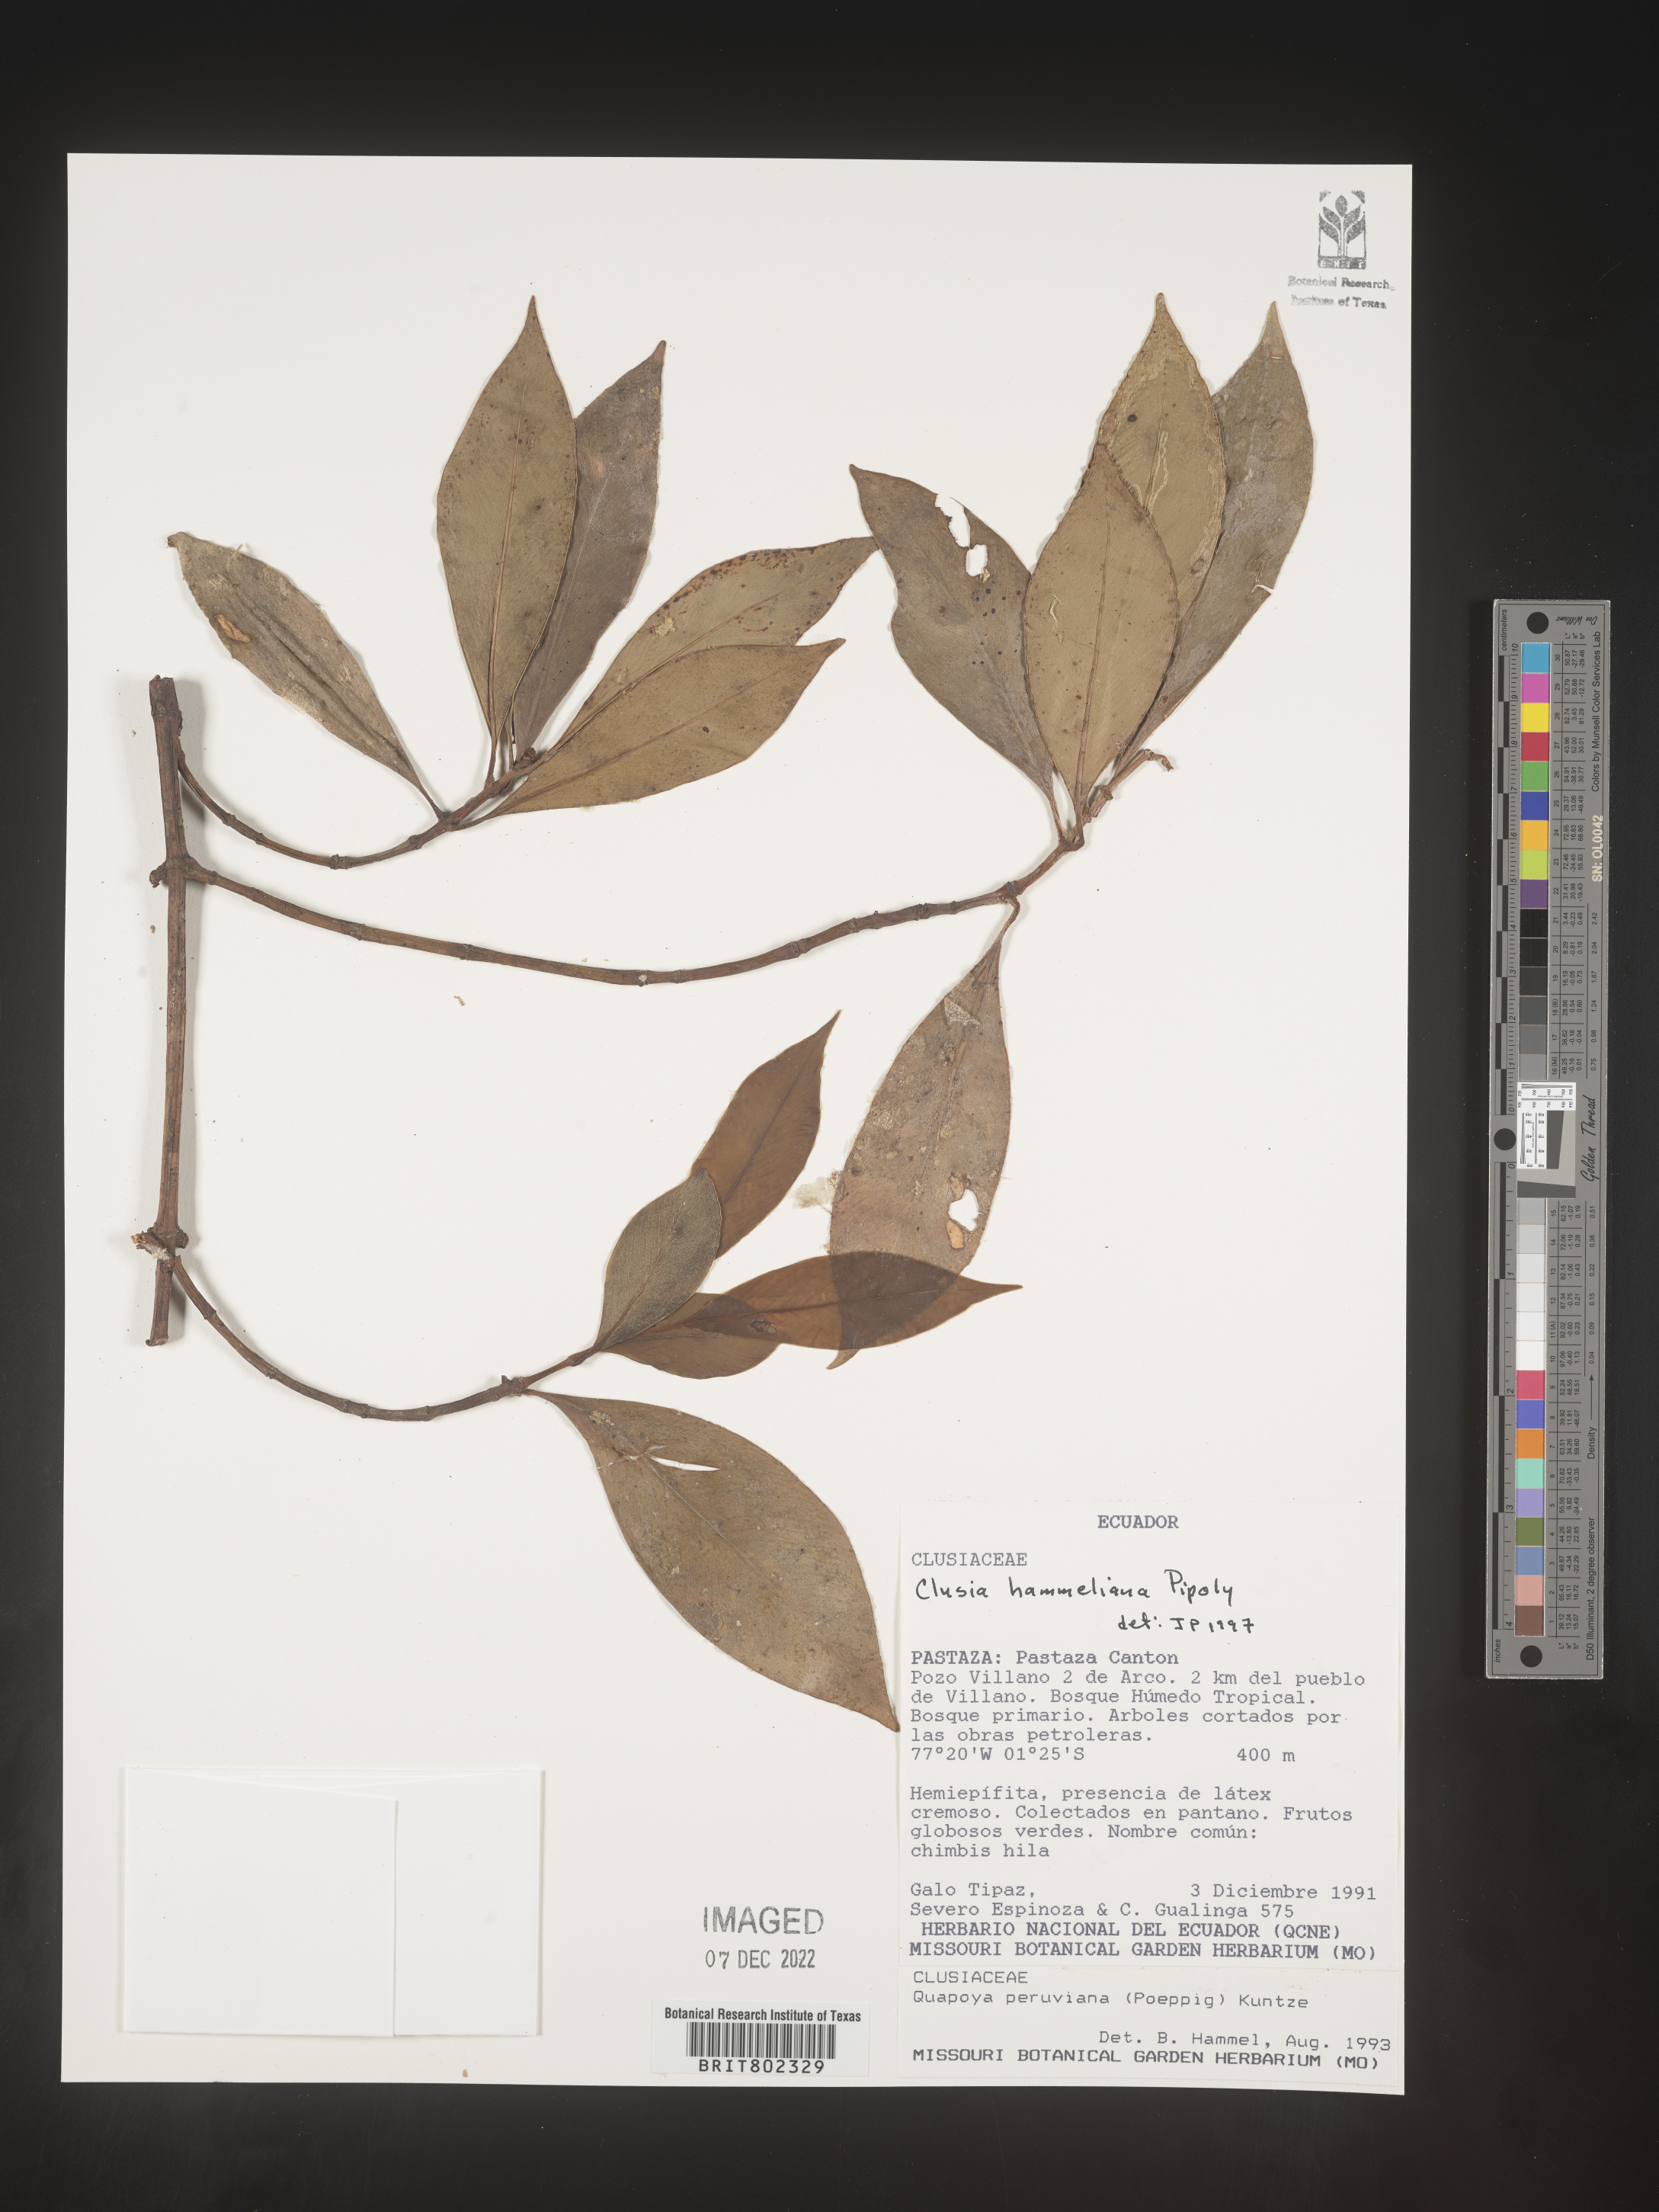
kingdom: Plantae
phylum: Tracheophyta
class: Magnoliopsida
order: Malpighiales
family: Clusiaceae
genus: Clusia
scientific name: Clusia hammeliana
